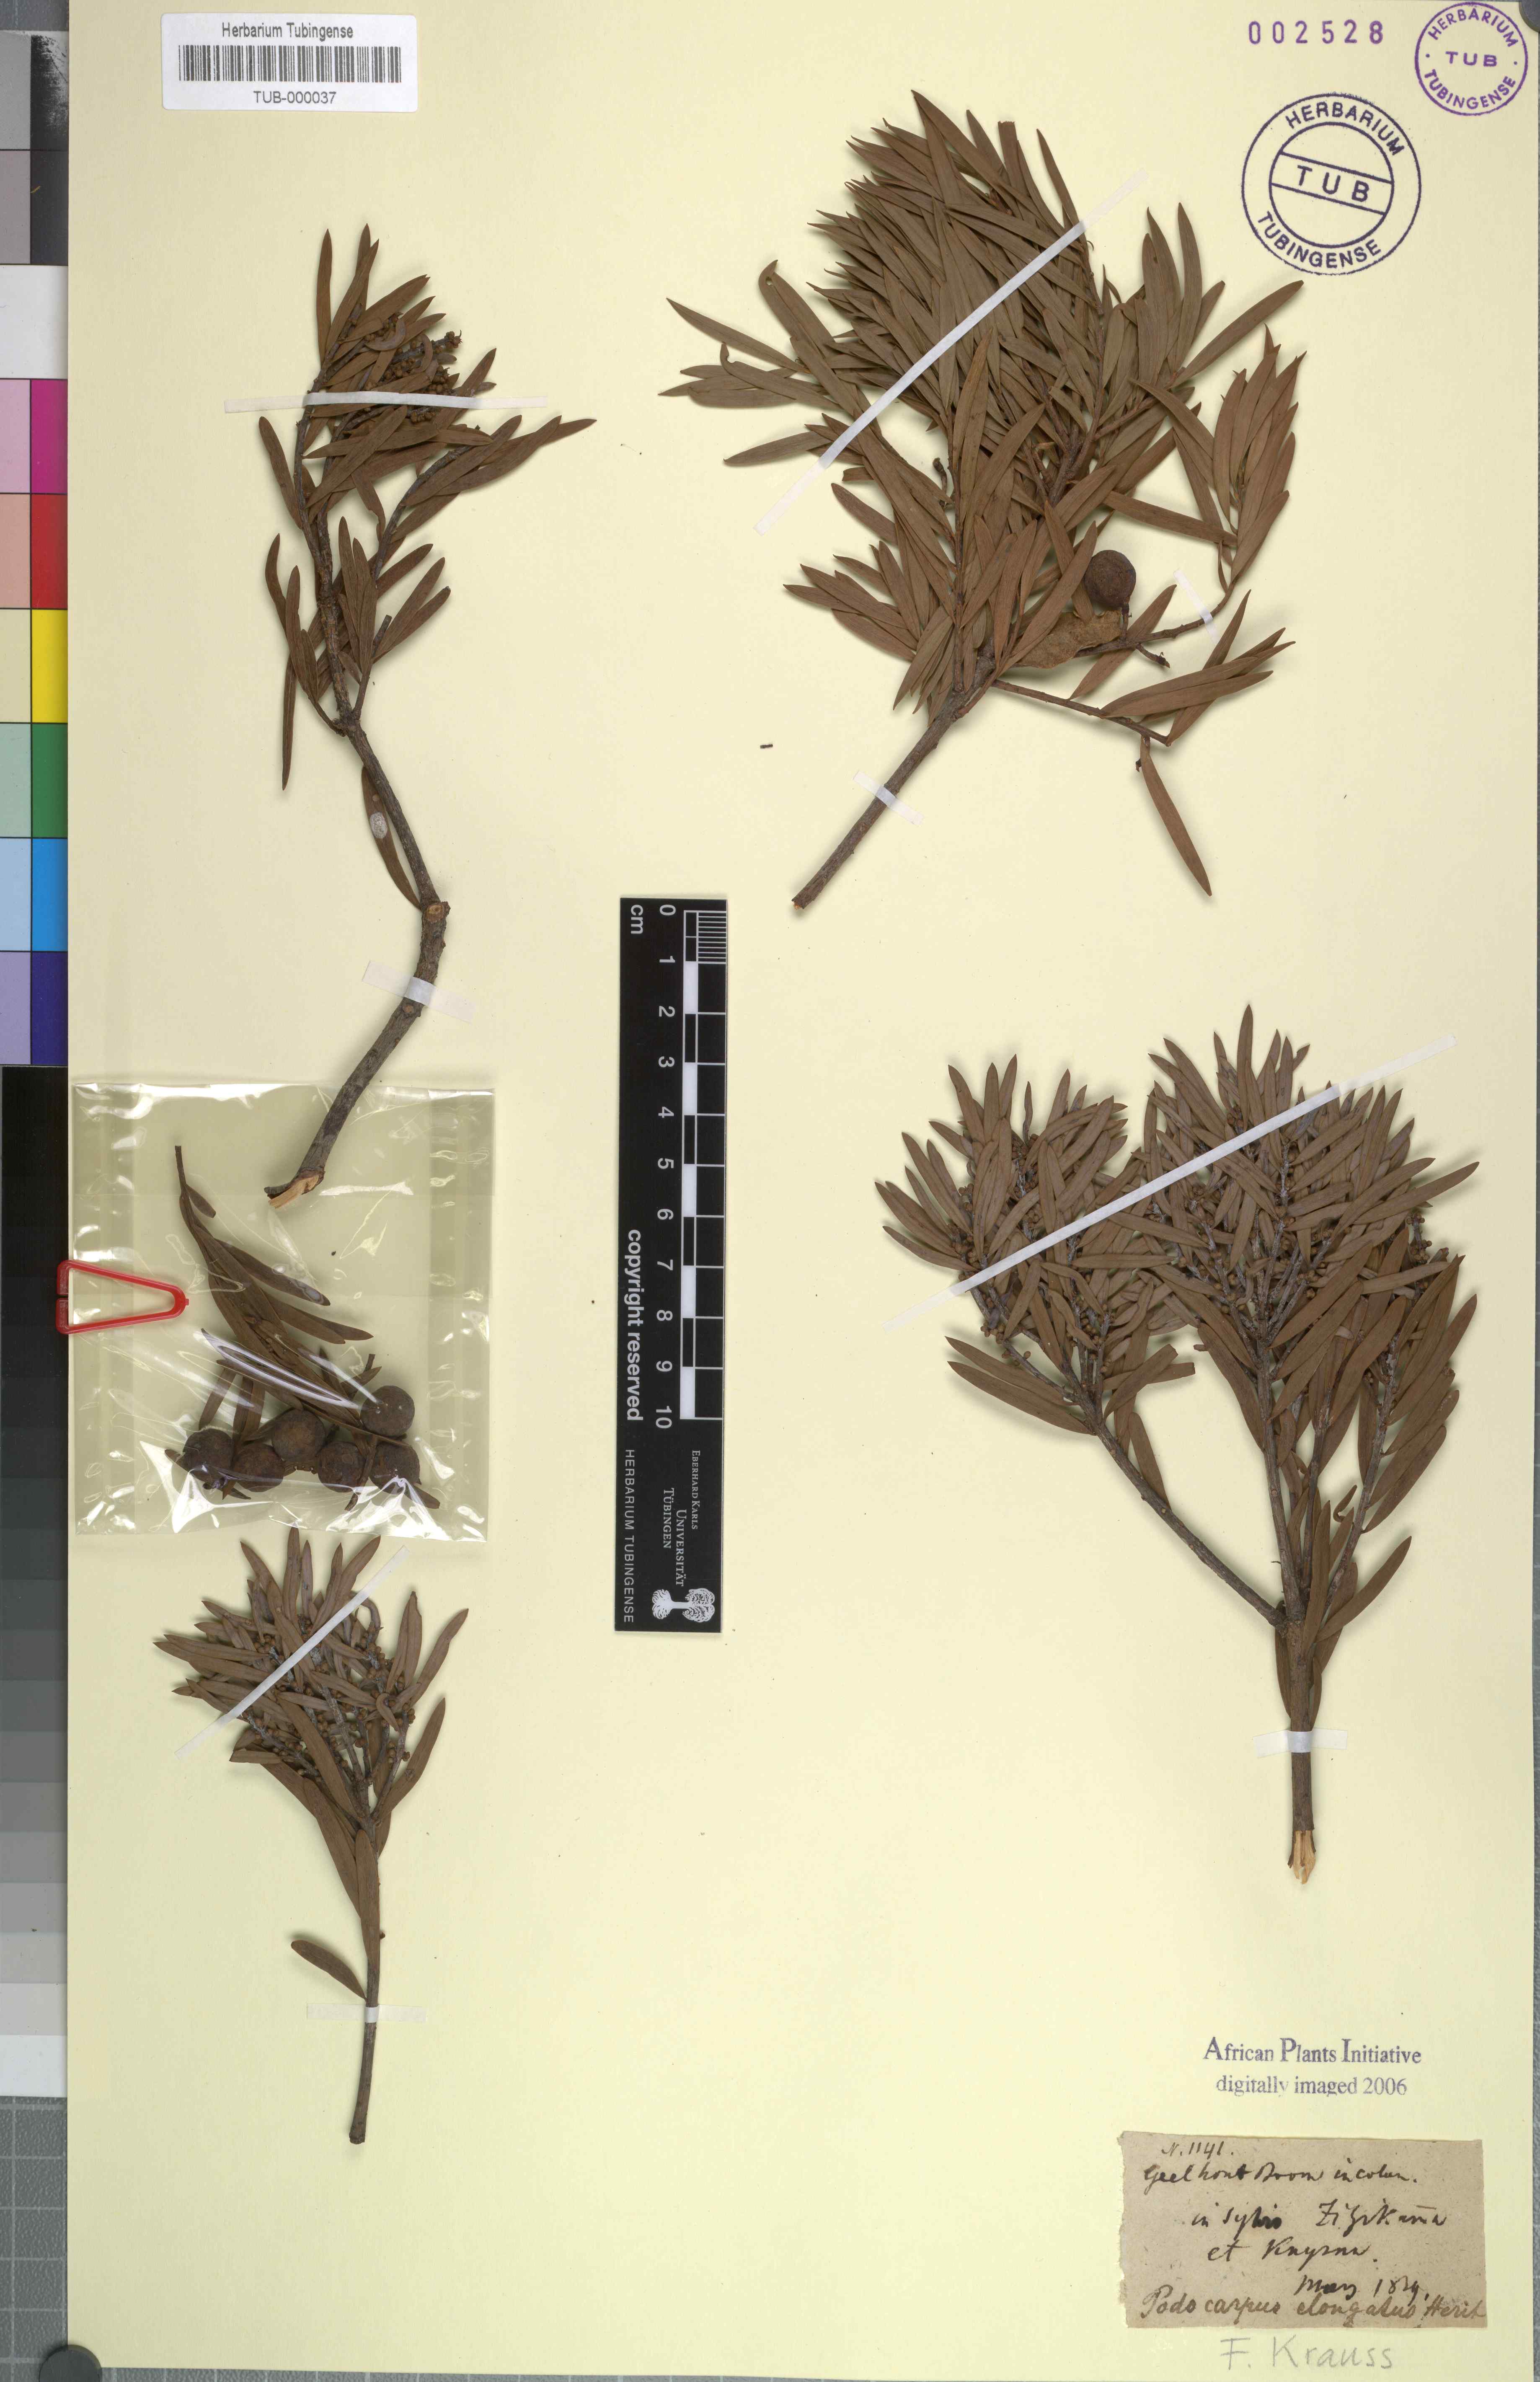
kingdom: Plantae
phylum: Tracheophyta
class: Pinopsida
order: Pinales
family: Podocarpaceae
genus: Podocarpus
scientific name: Podocarpus
